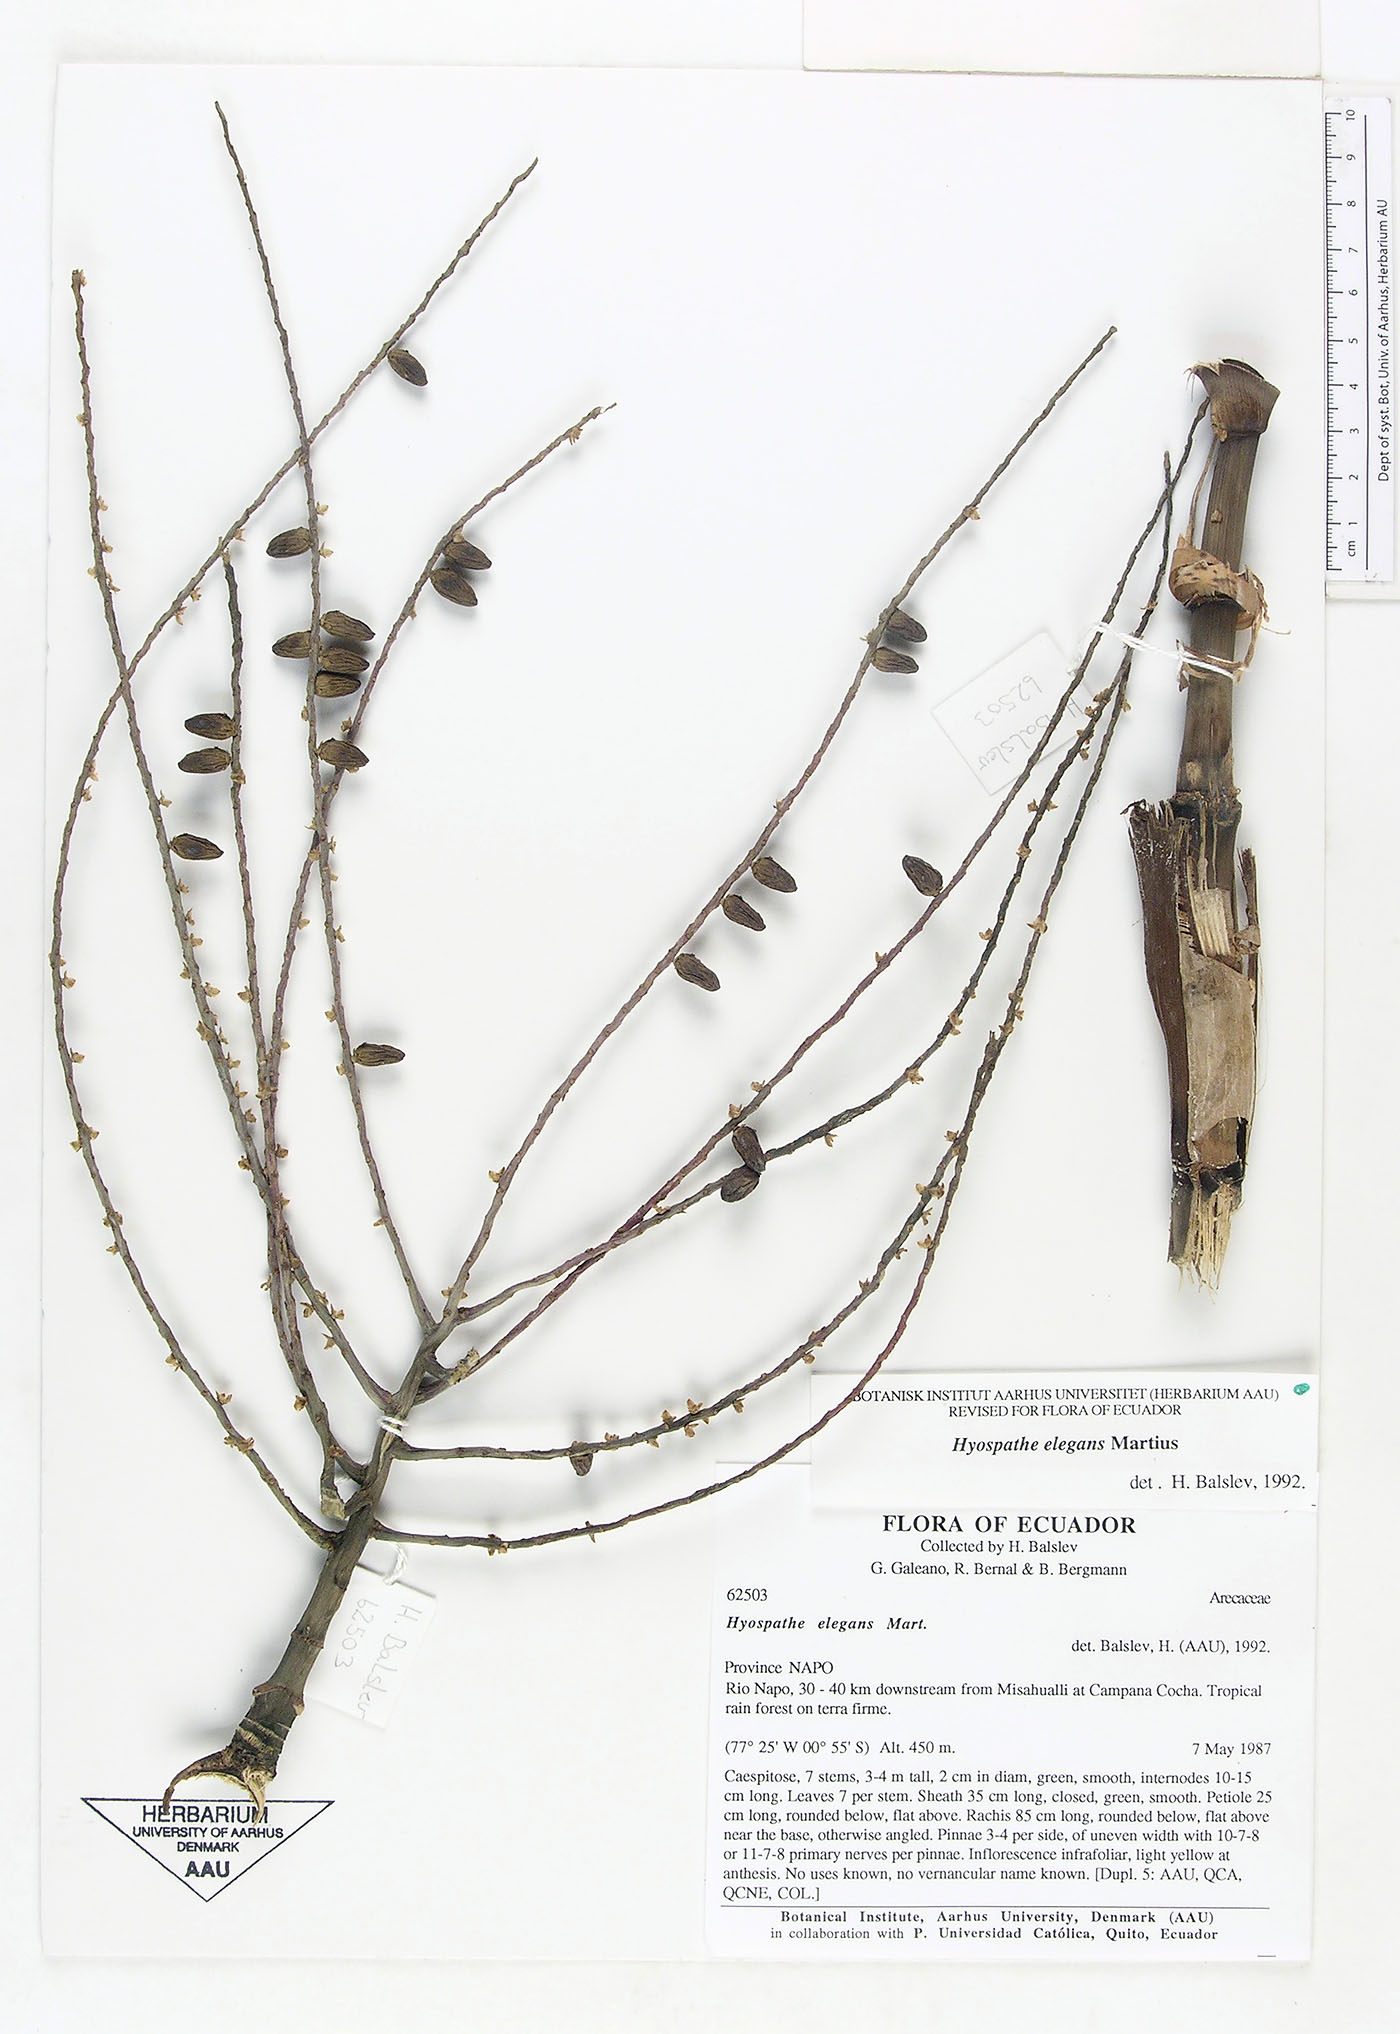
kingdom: Plantae
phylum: Tracheophyta
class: Liliopsida
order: Arecales
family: Arecaceae
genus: Hyospathe
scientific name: Hyospathe elegans
